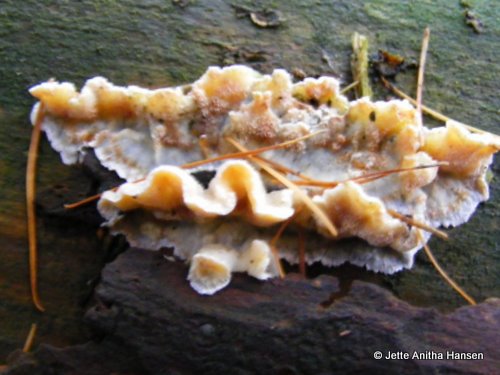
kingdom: Fungi
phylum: Basidiomycota
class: Agaricomycetes
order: Polyporales
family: Incrustoporiaceae
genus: Skeletocutis
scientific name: Skeletocutis amorpha
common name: orange krystalporesvamp
